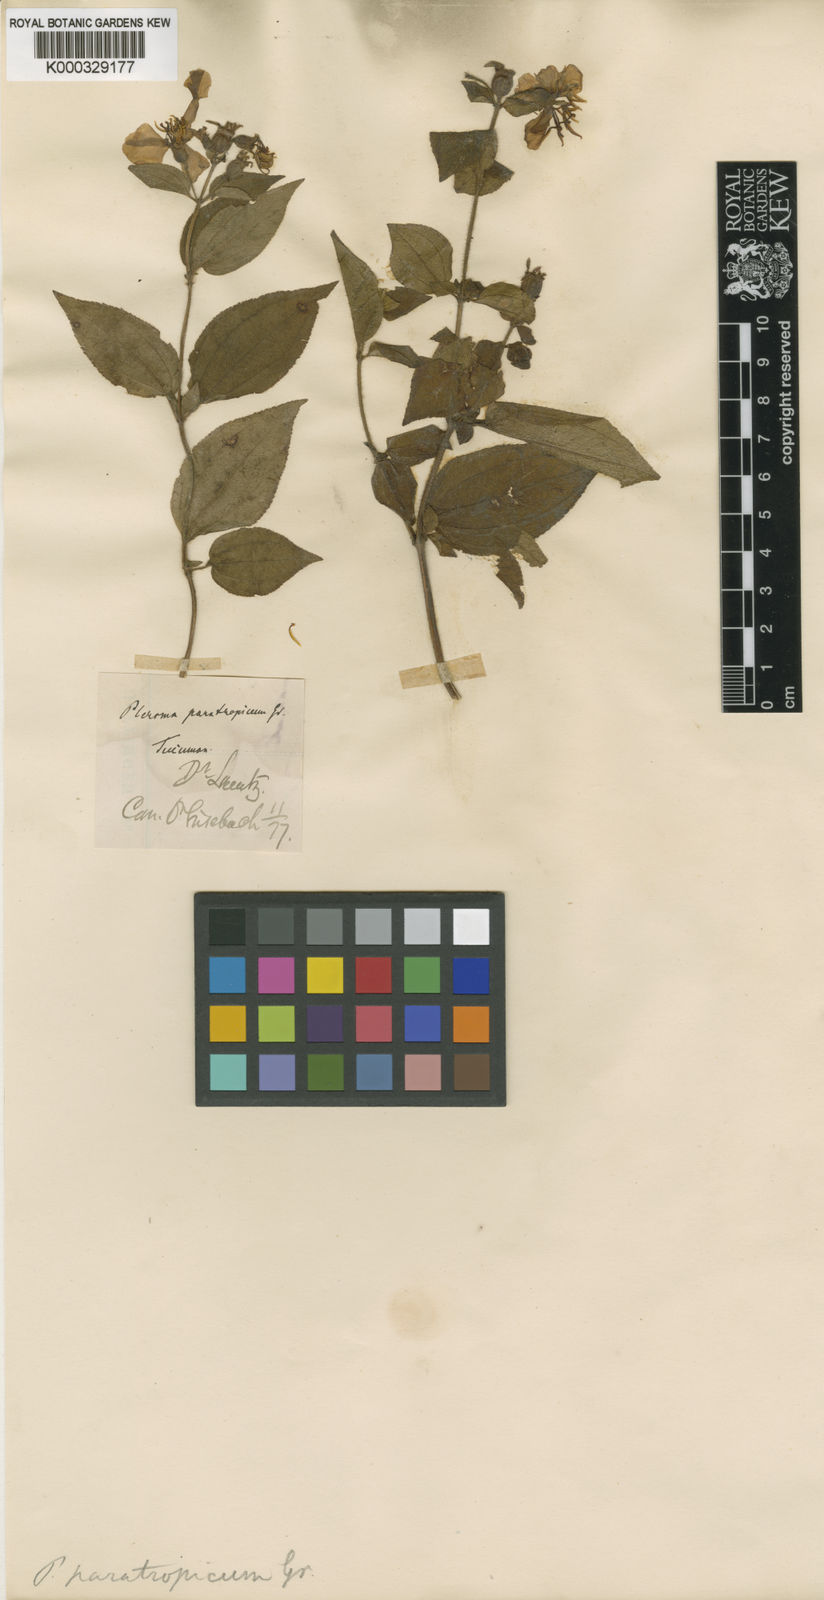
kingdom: Plantae
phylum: Tracheophyta
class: Magnoliopsida
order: Myrtales
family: Melastomataceae
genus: Chaetogastra
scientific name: Chaetogastra paratropica
